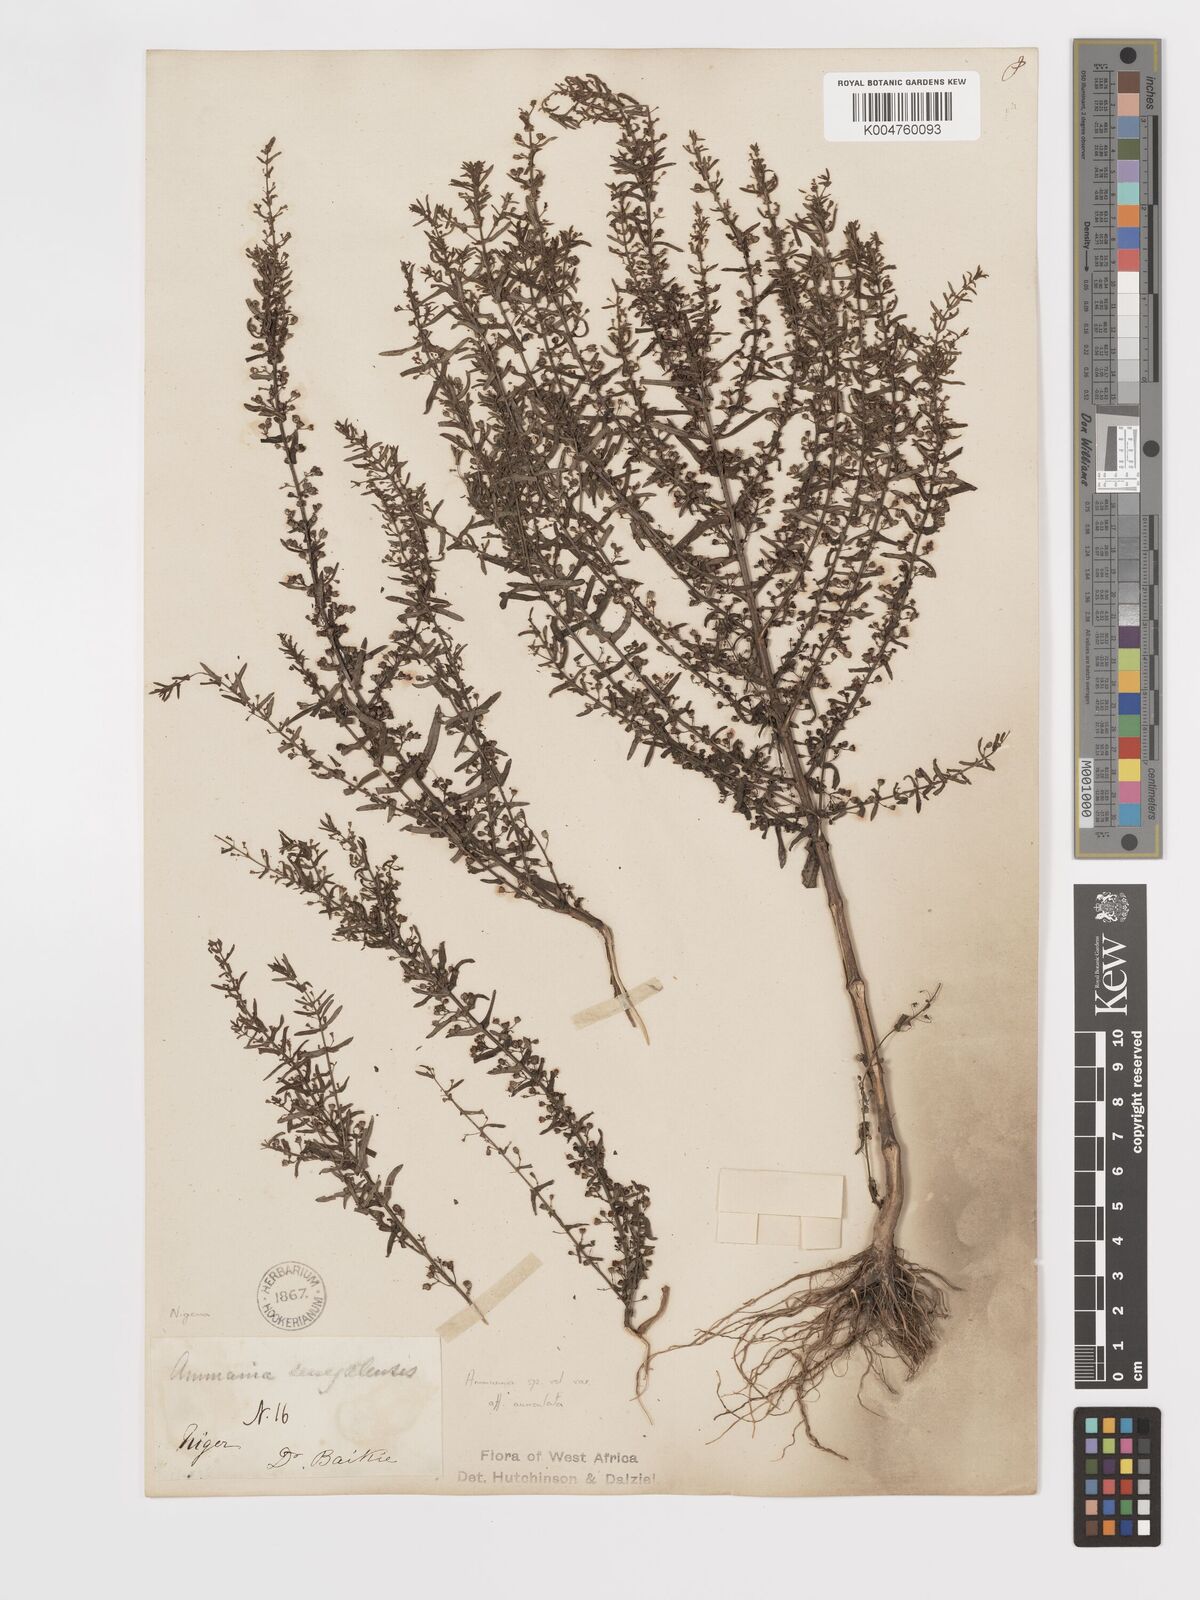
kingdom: Plantae
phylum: Tracheophyta
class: Magnoliopsida
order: Myrtales
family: Lythraceae
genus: Ammannia
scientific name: Ammannia auriculata
